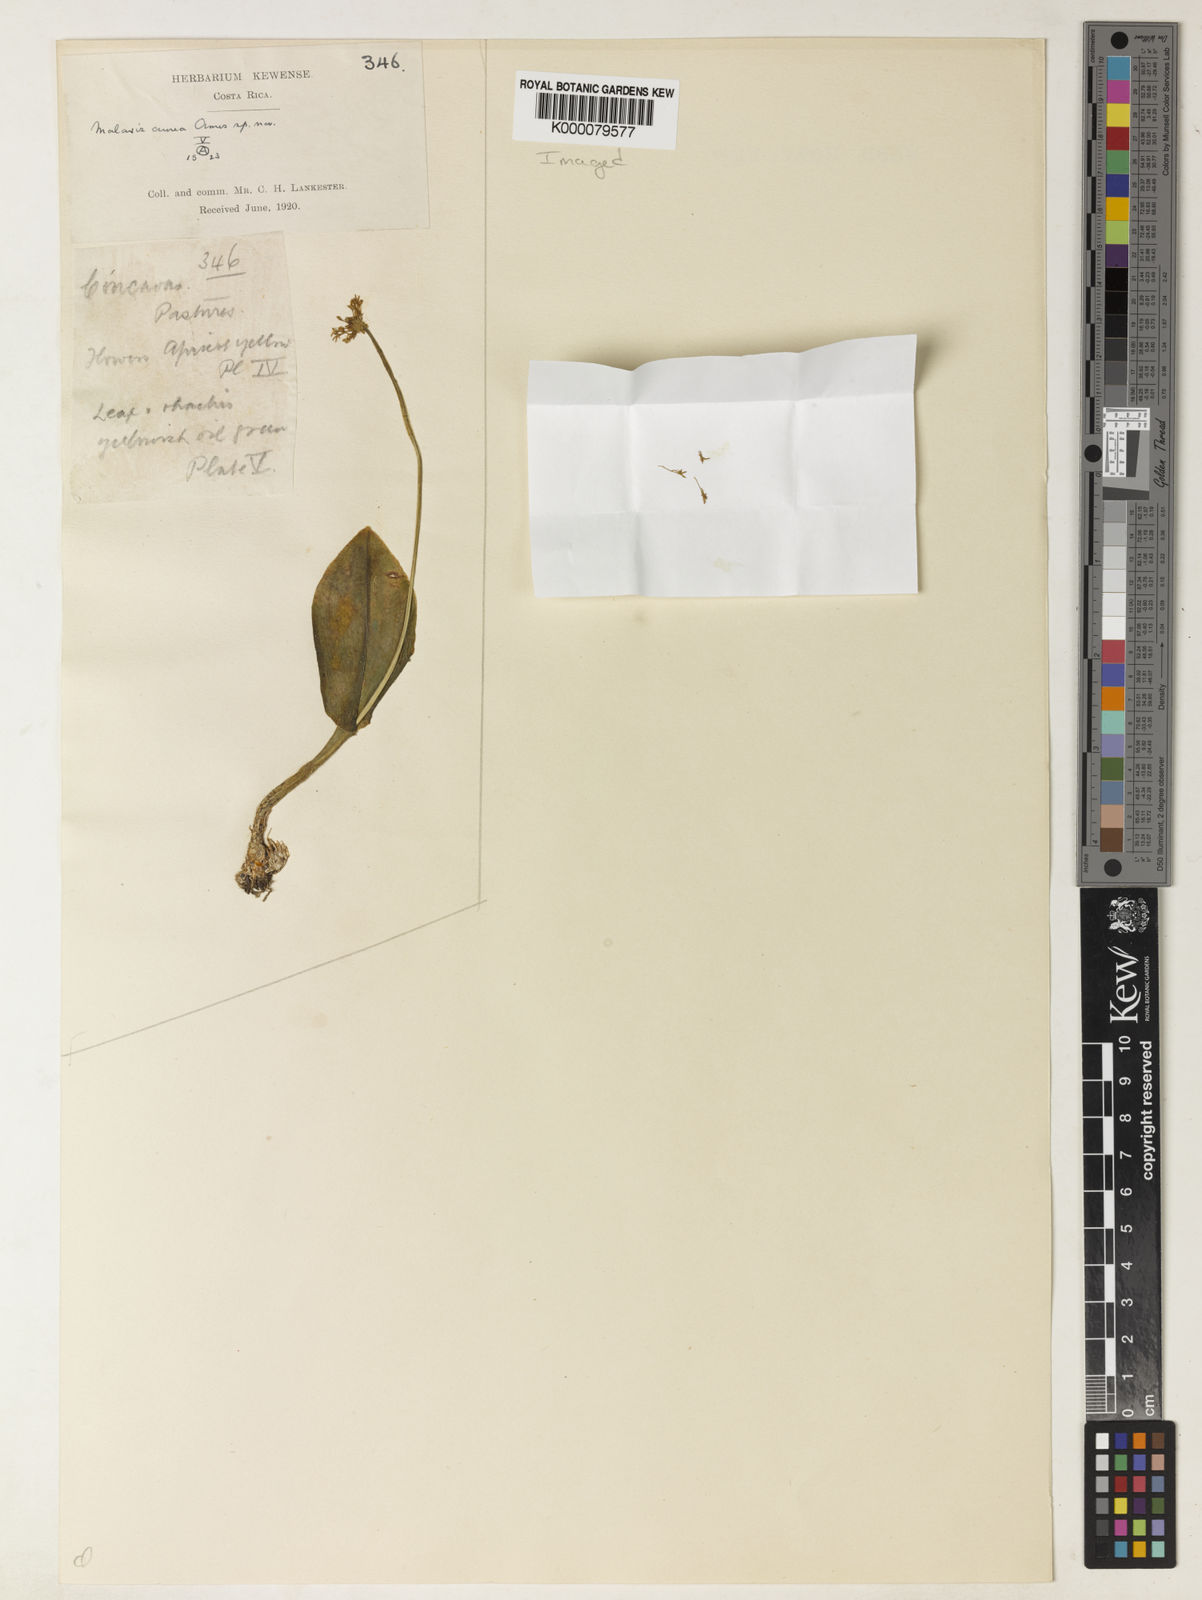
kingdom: Plantae
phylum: Tracheophyta
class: Liliopsida
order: Asparagales
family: Orchidaceae
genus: Malaxis
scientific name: Malaxis aurea
